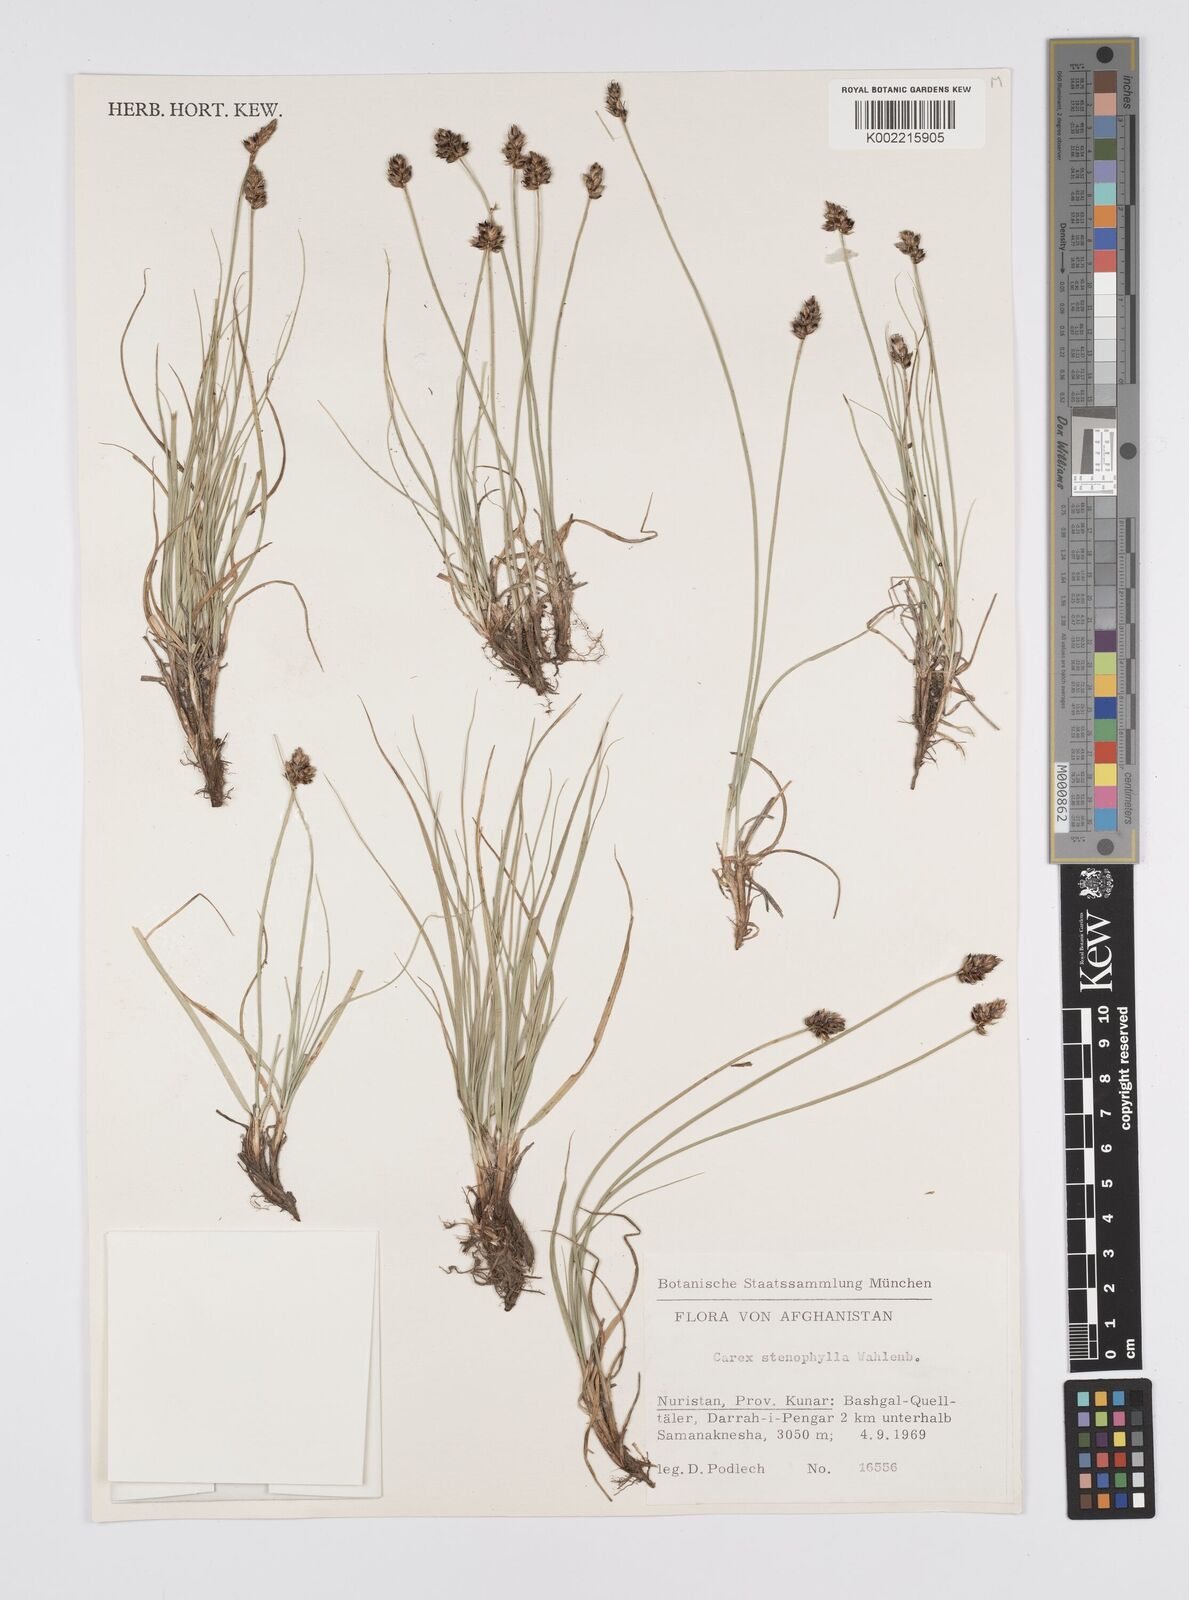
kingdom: Plantae
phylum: Tracheophyta
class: Liliopsida
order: Poales
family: Cyperaceae
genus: Carex
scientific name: Carex stenophylla
